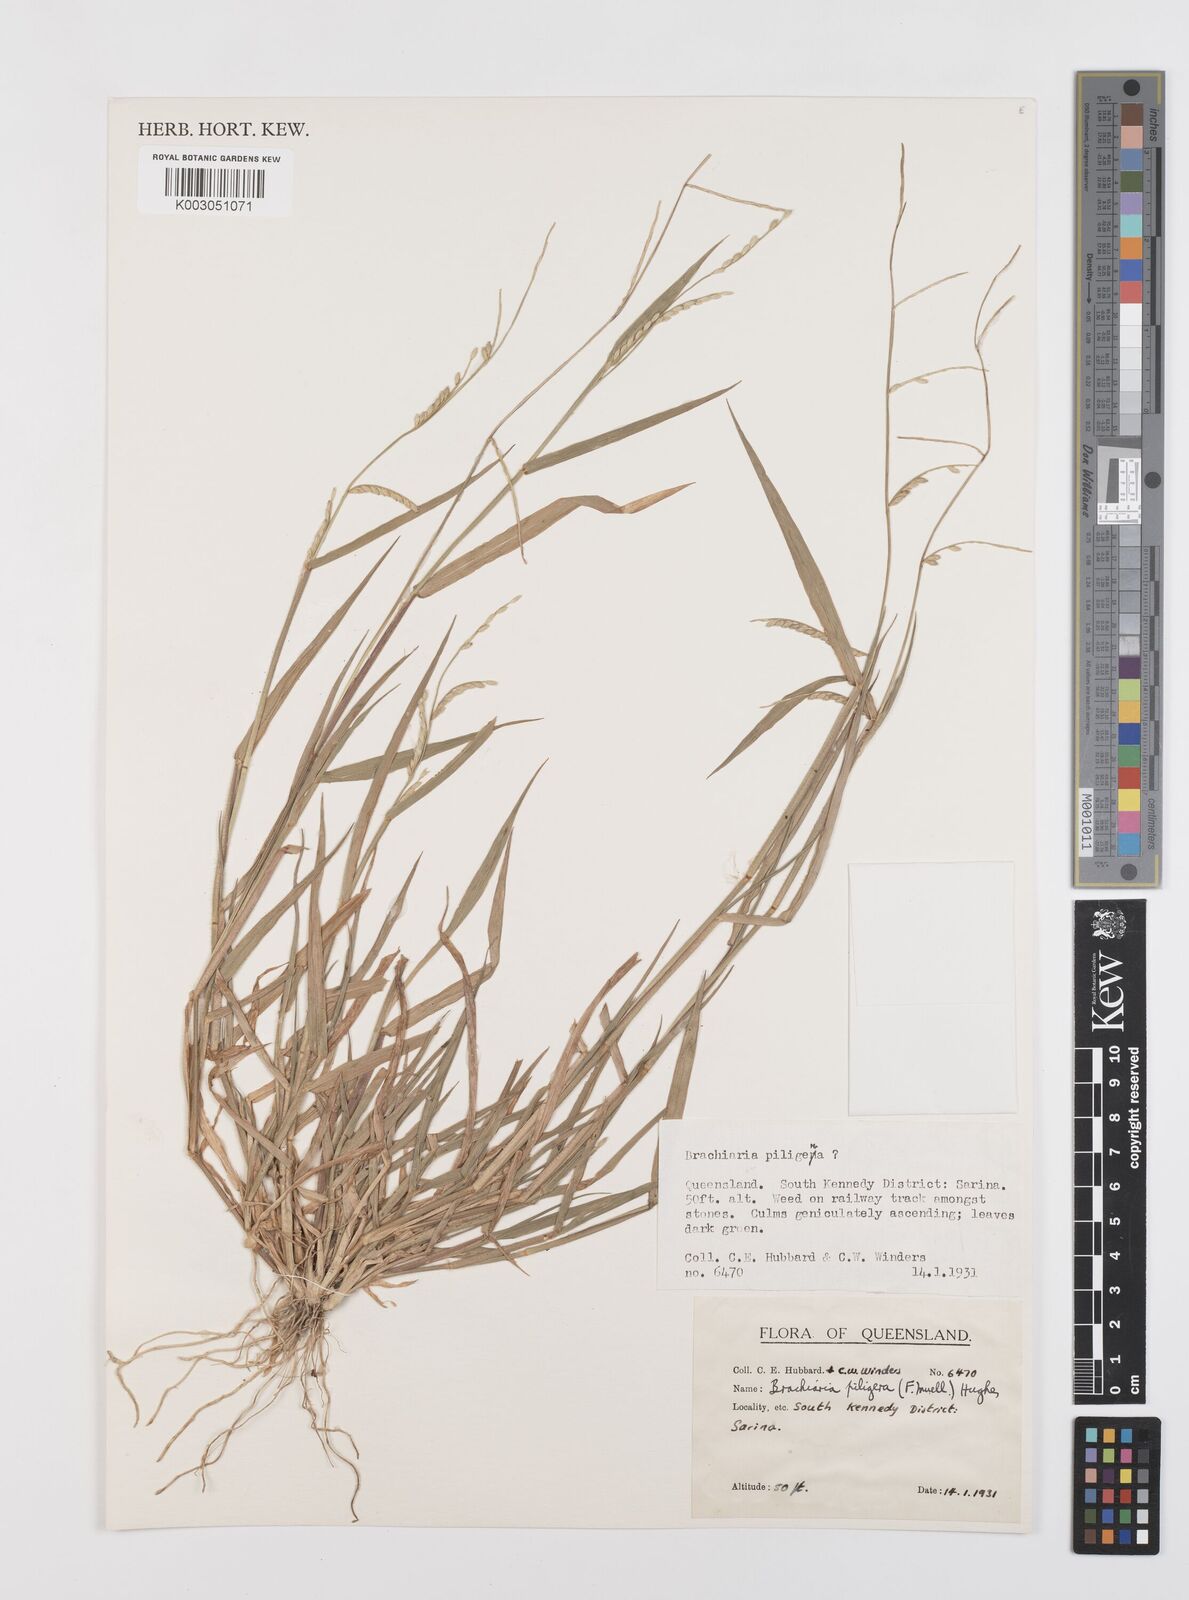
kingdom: Plantae
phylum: Tracheophyta
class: Liliopsida
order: Poales
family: Poaceae
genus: Urochloa
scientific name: Urochloa piligera
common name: Wattle signalgrass
